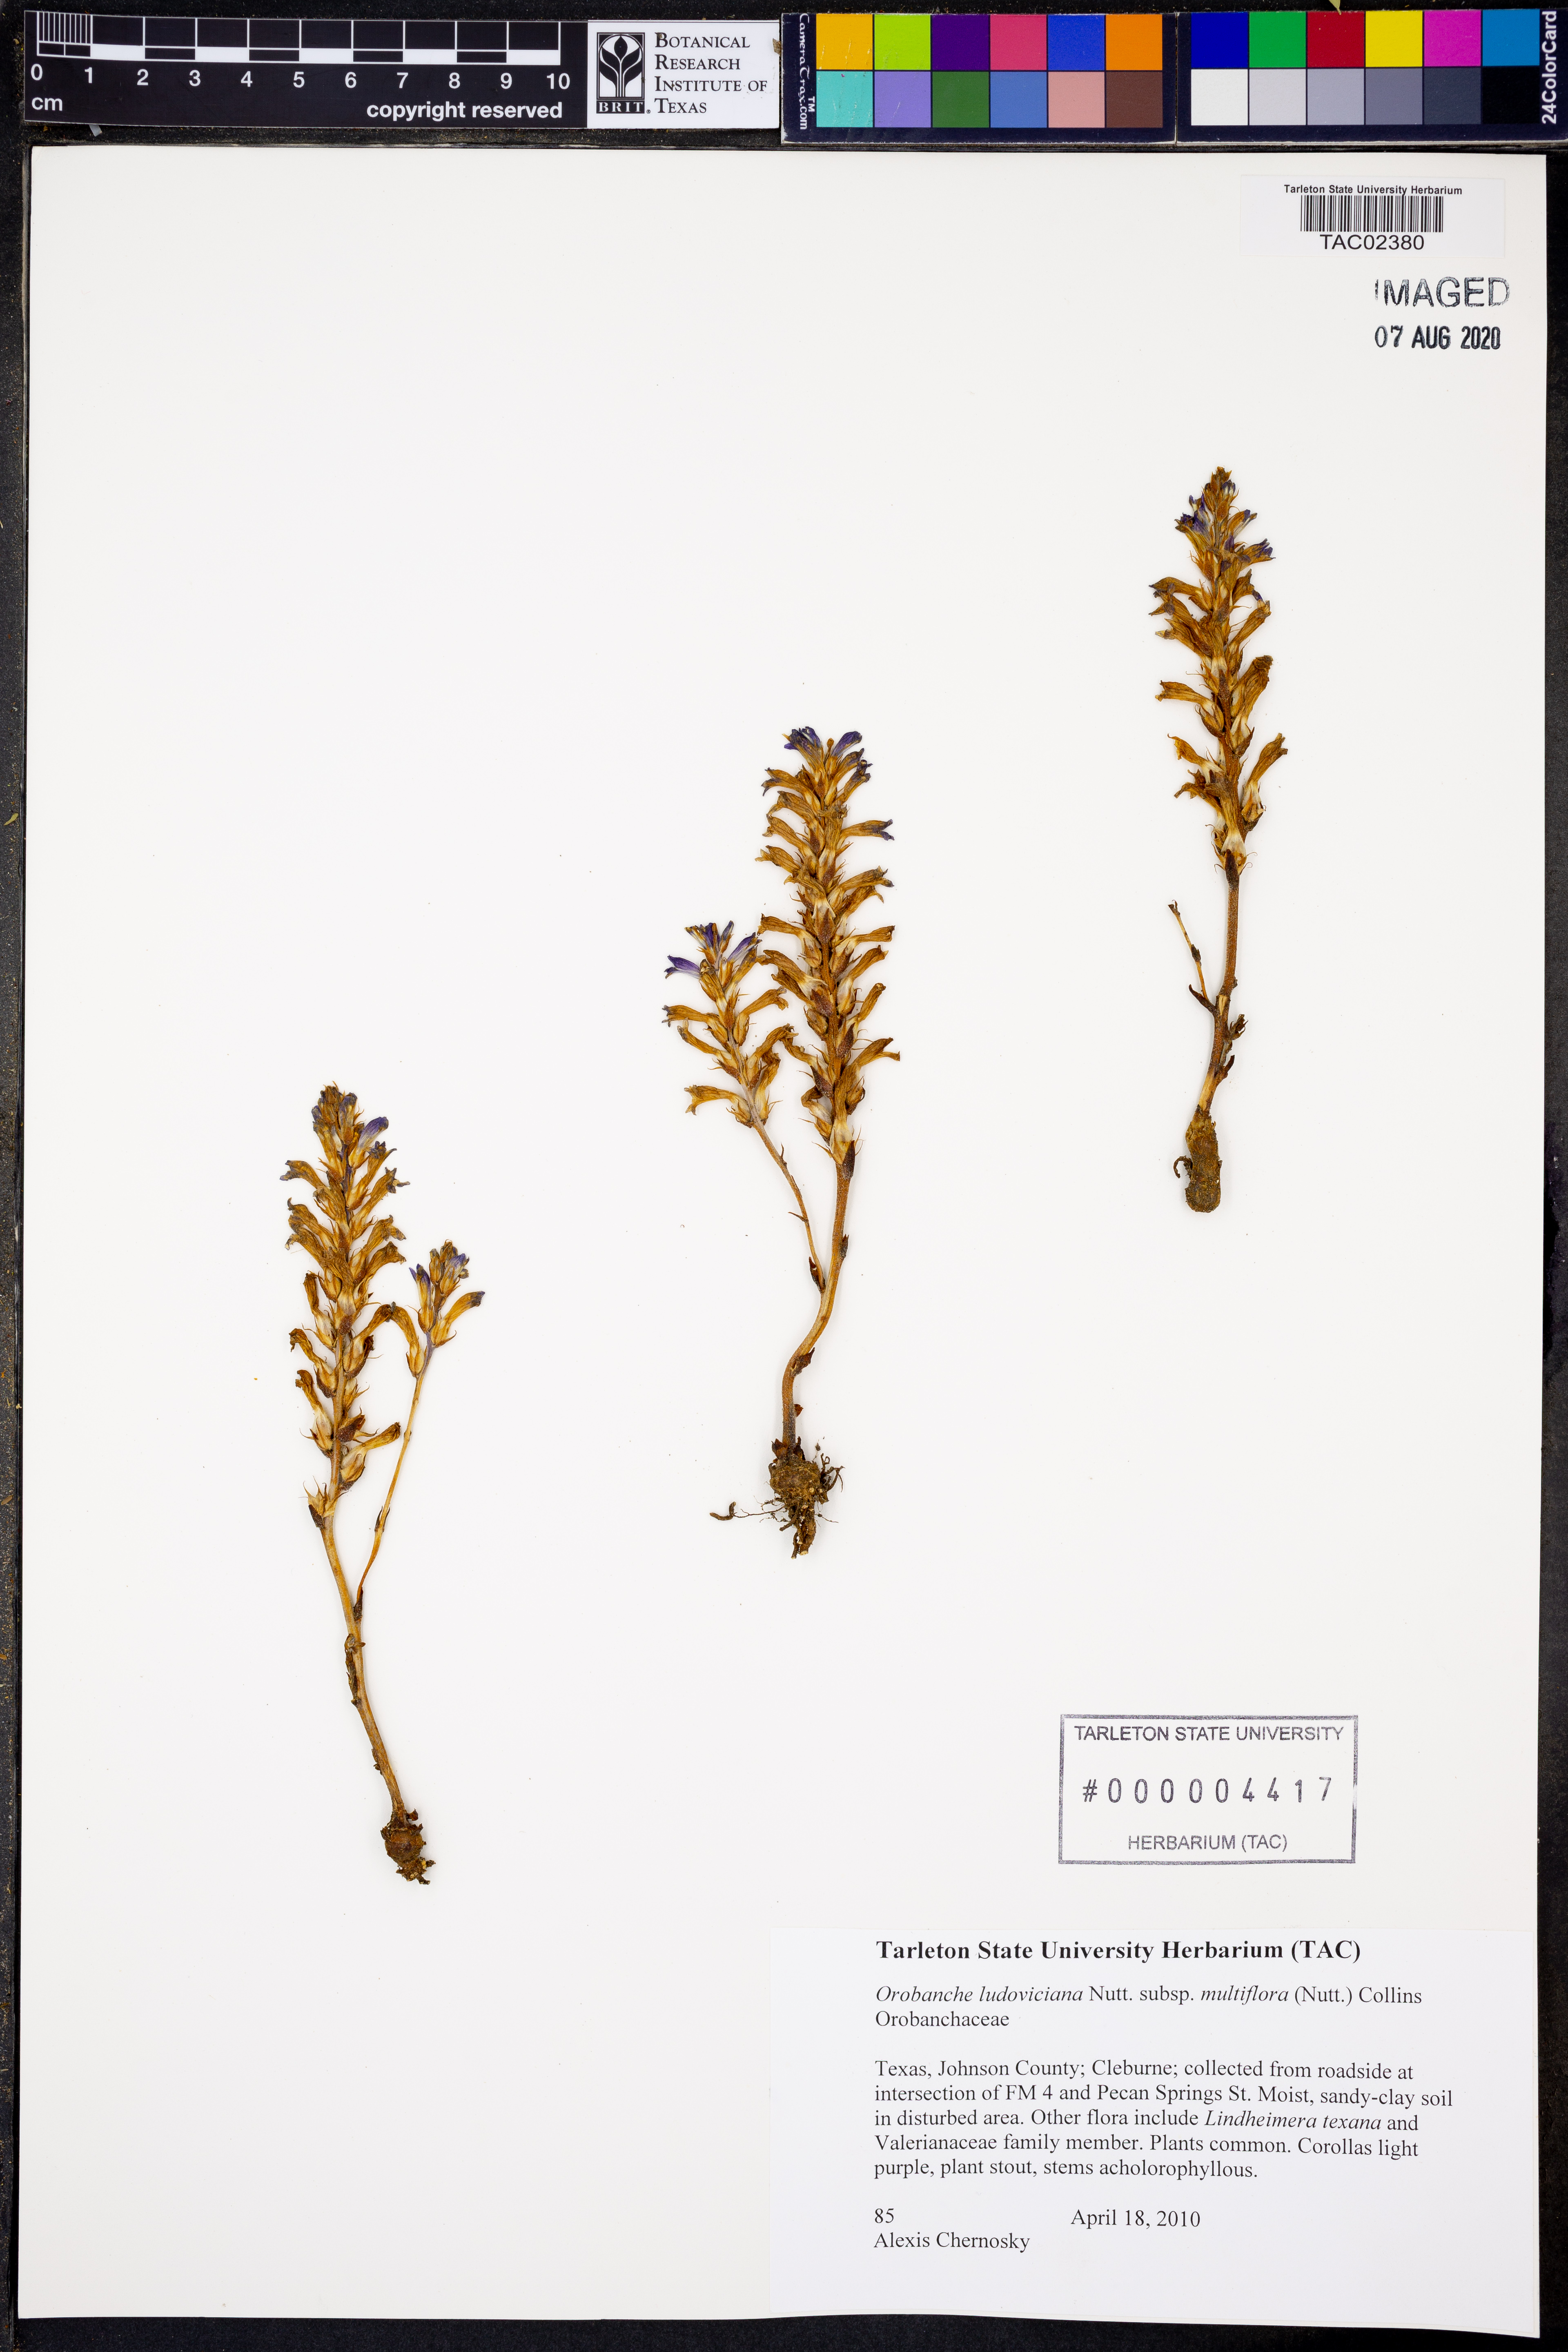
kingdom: Plantae
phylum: Tracheophyta
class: Magnoliopsida
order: Lamiales
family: Orobanchaceae
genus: Aphyllon
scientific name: Aphyllon multiflorum
